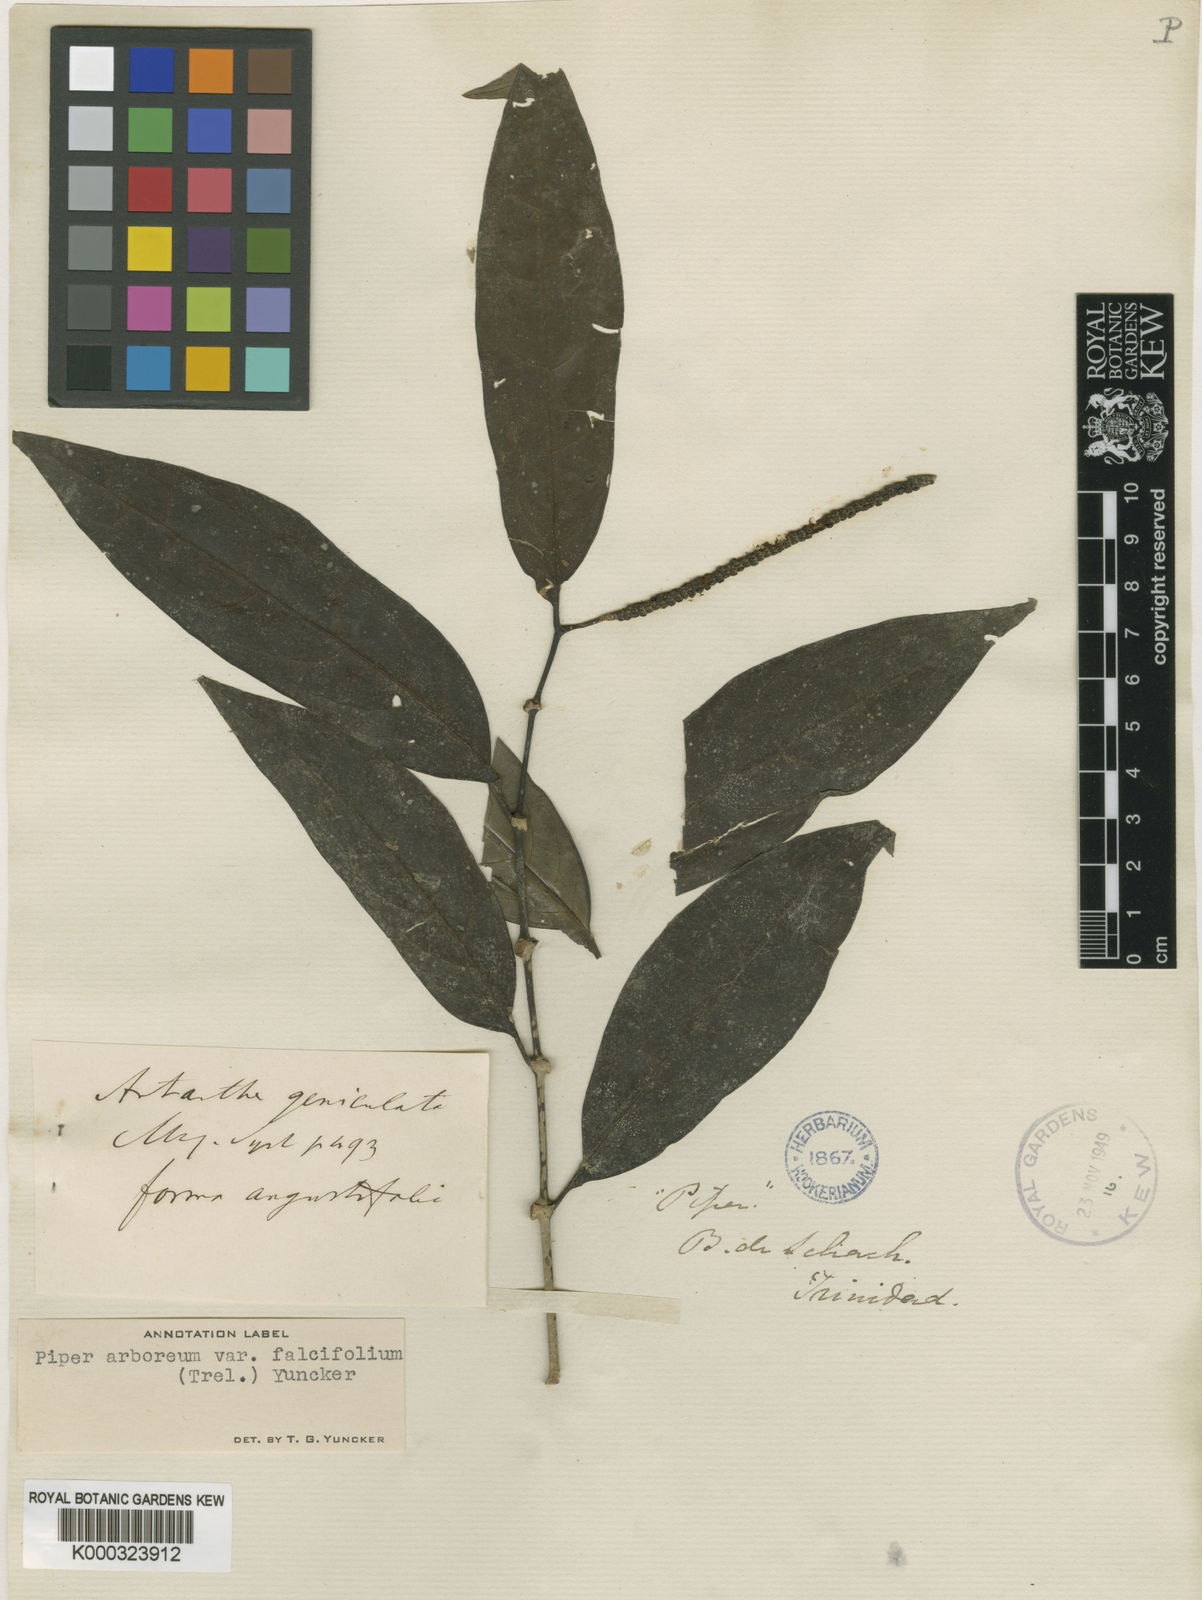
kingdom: Plantae
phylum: Tracheophyta
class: Magnoliopsida
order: Piperales
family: Piperaceae
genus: Piper
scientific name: Piper falcifolium
